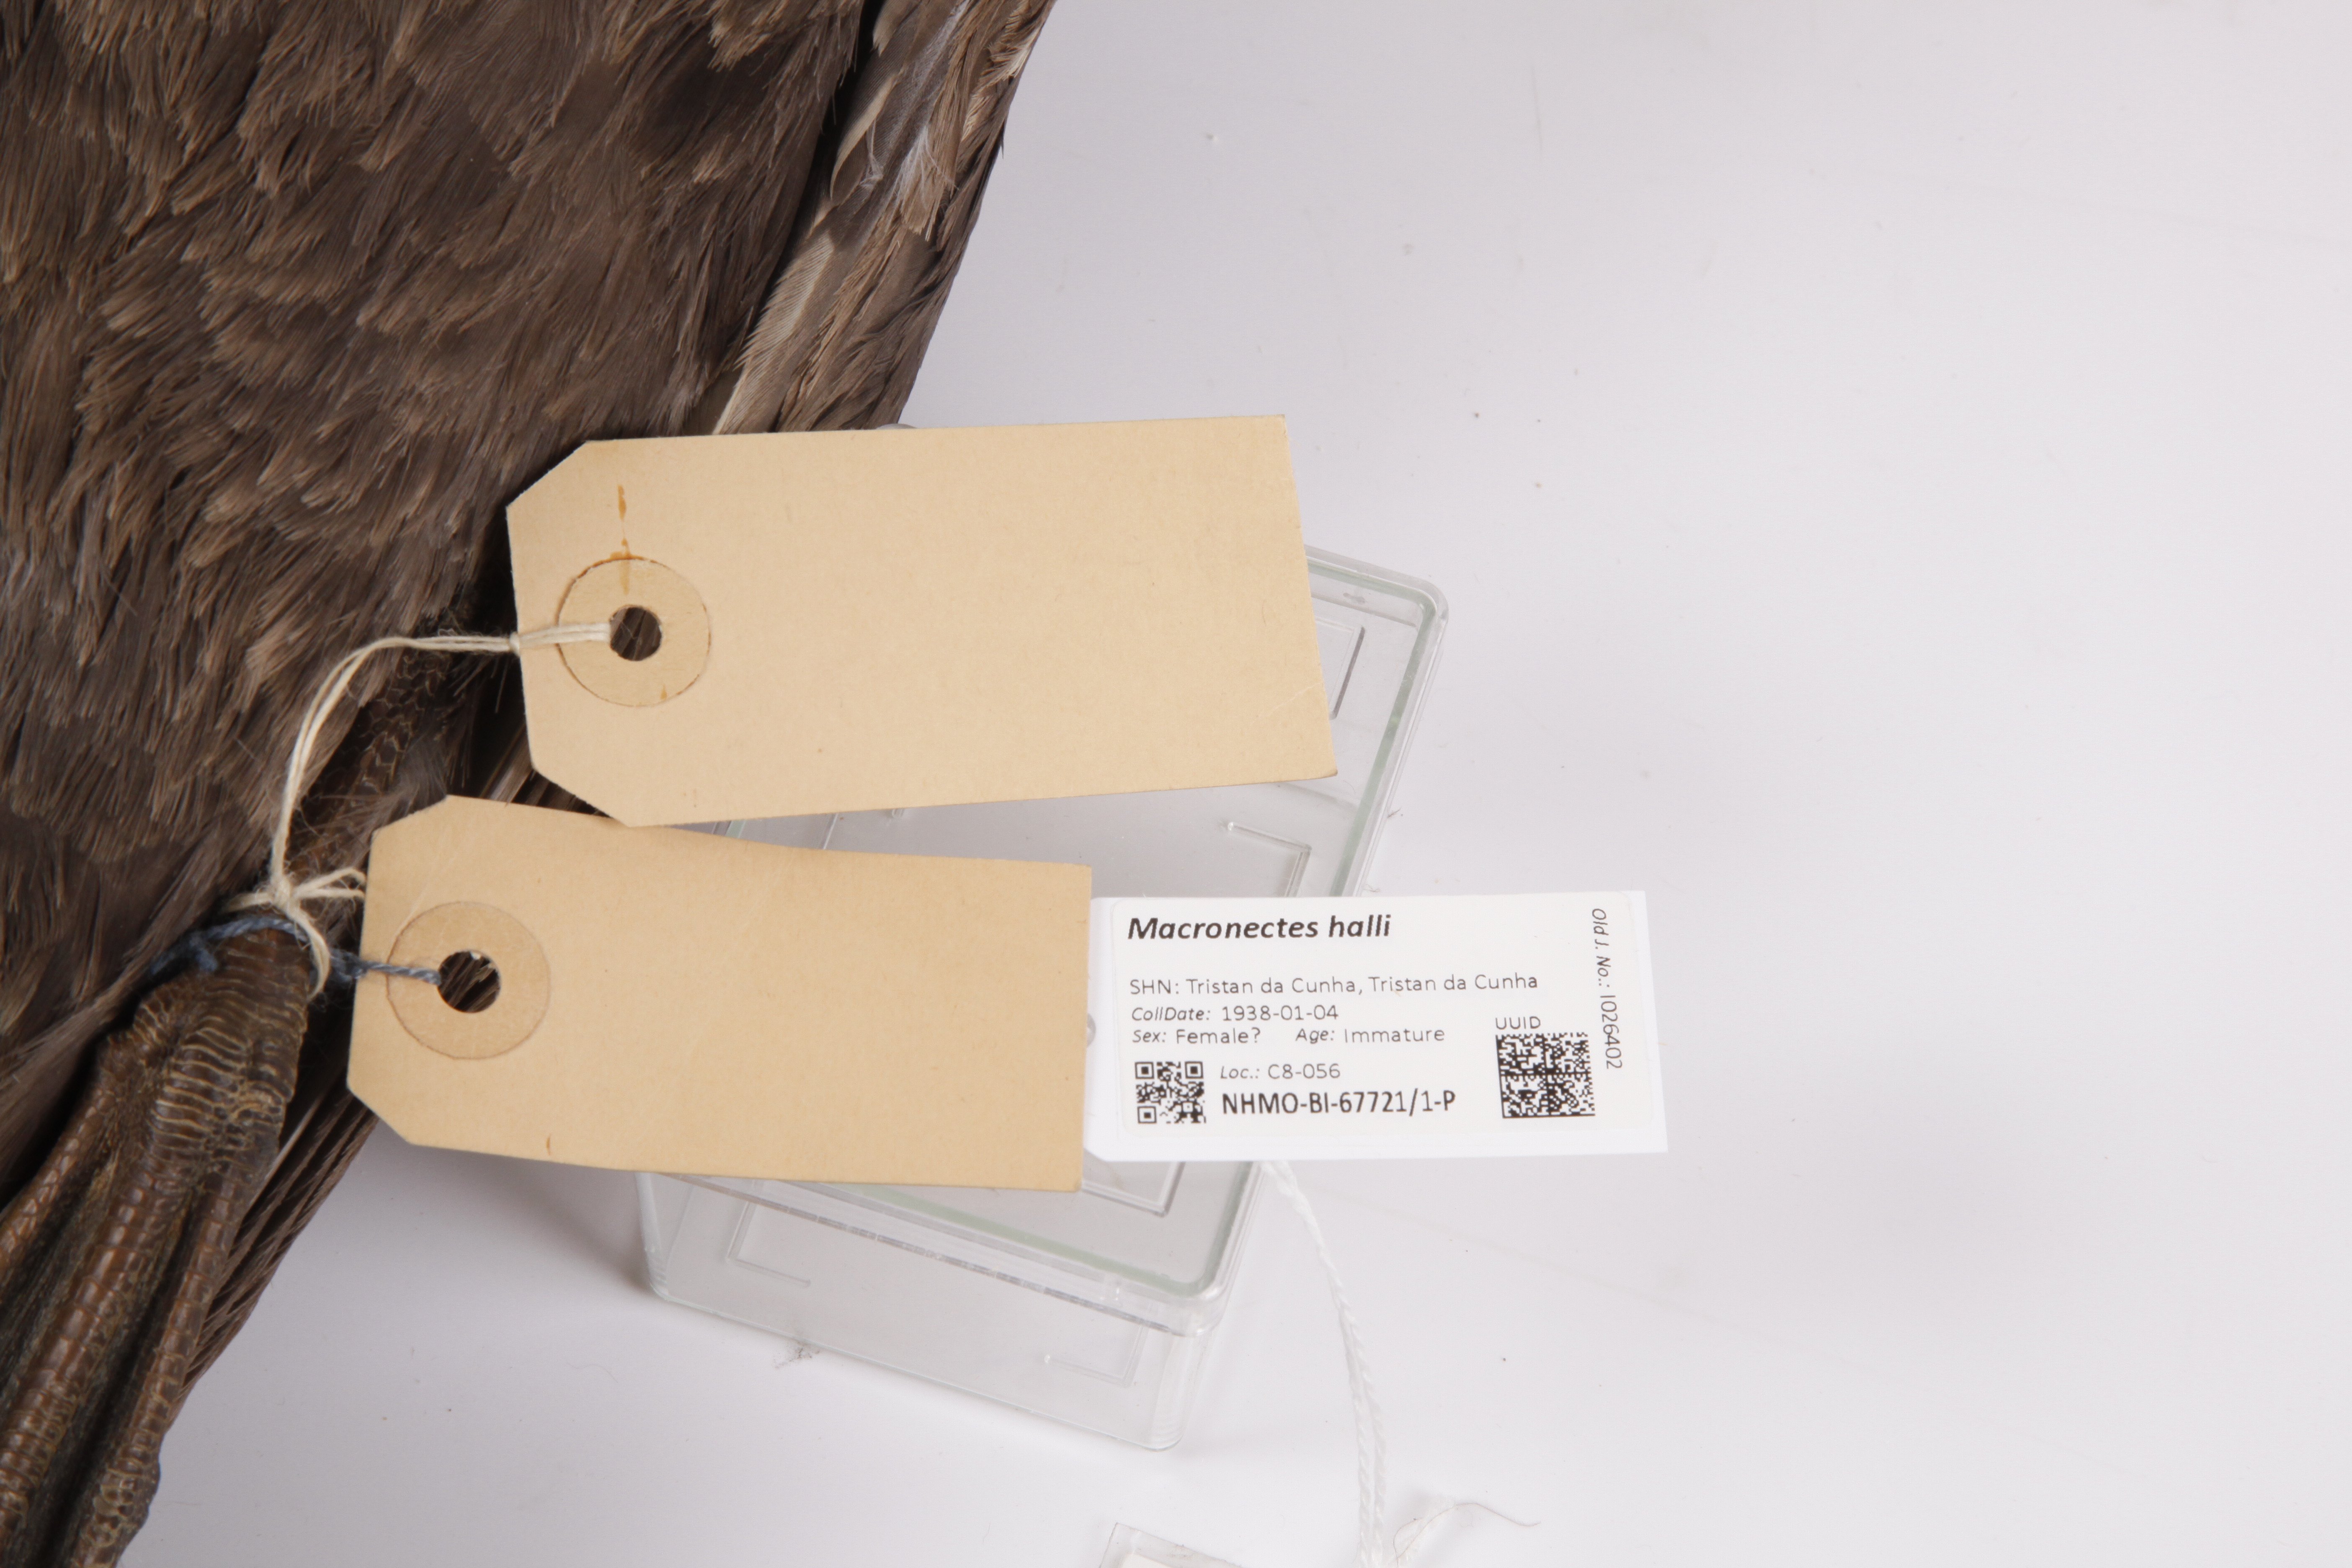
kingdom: Animalia
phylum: Chordata
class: Aves
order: Procellariiformes
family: Procellariidae
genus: Macronectes
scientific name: Macronectes halli
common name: Northern giant petrel
